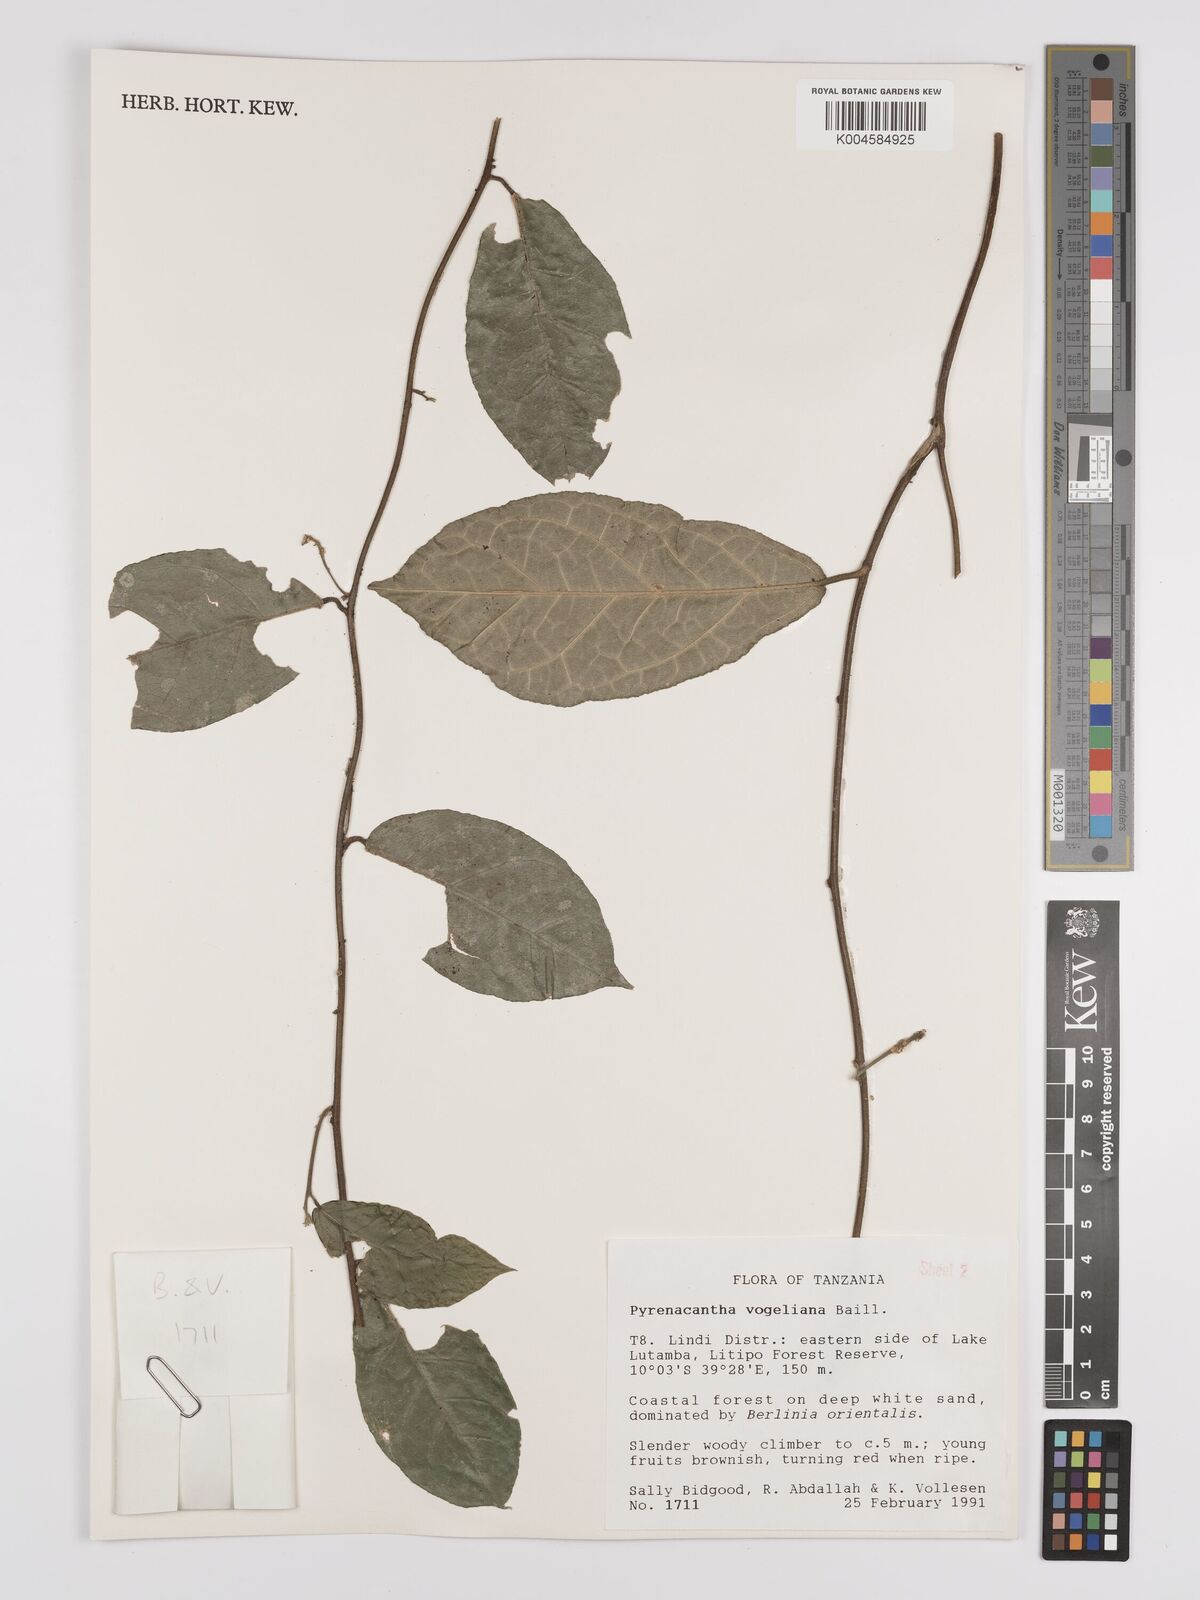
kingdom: Plantae
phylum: Tracheophyta
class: Magnoliopsida
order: Icacinales
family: Icacinaceae
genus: Pyrenacantha
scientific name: Pyrenacantha vogeliana
